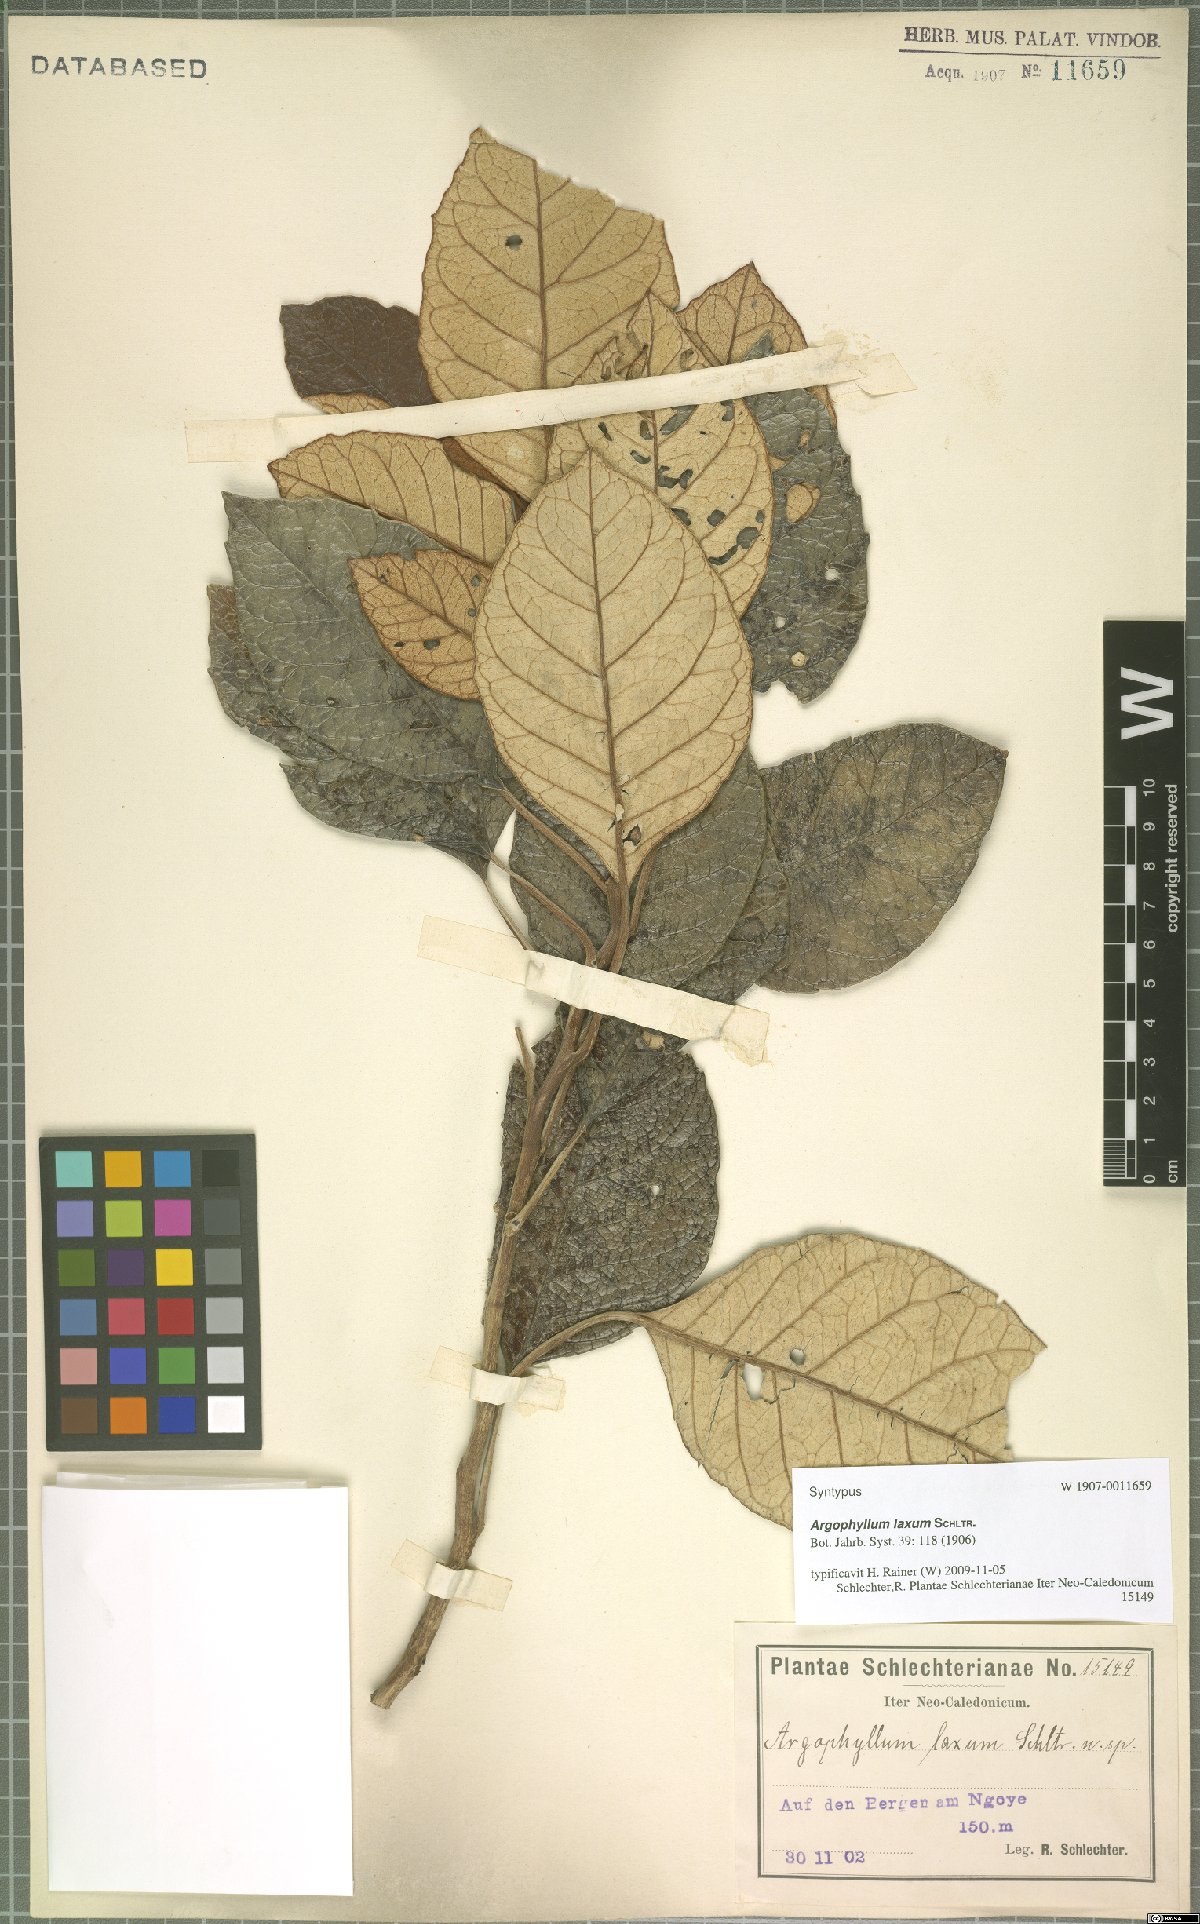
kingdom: Plantae
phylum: Tracheophyta
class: Magnoliopsida
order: Asterales
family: Argophyllaceae
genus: Argophyllum
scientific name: Argophyllum grunowii
